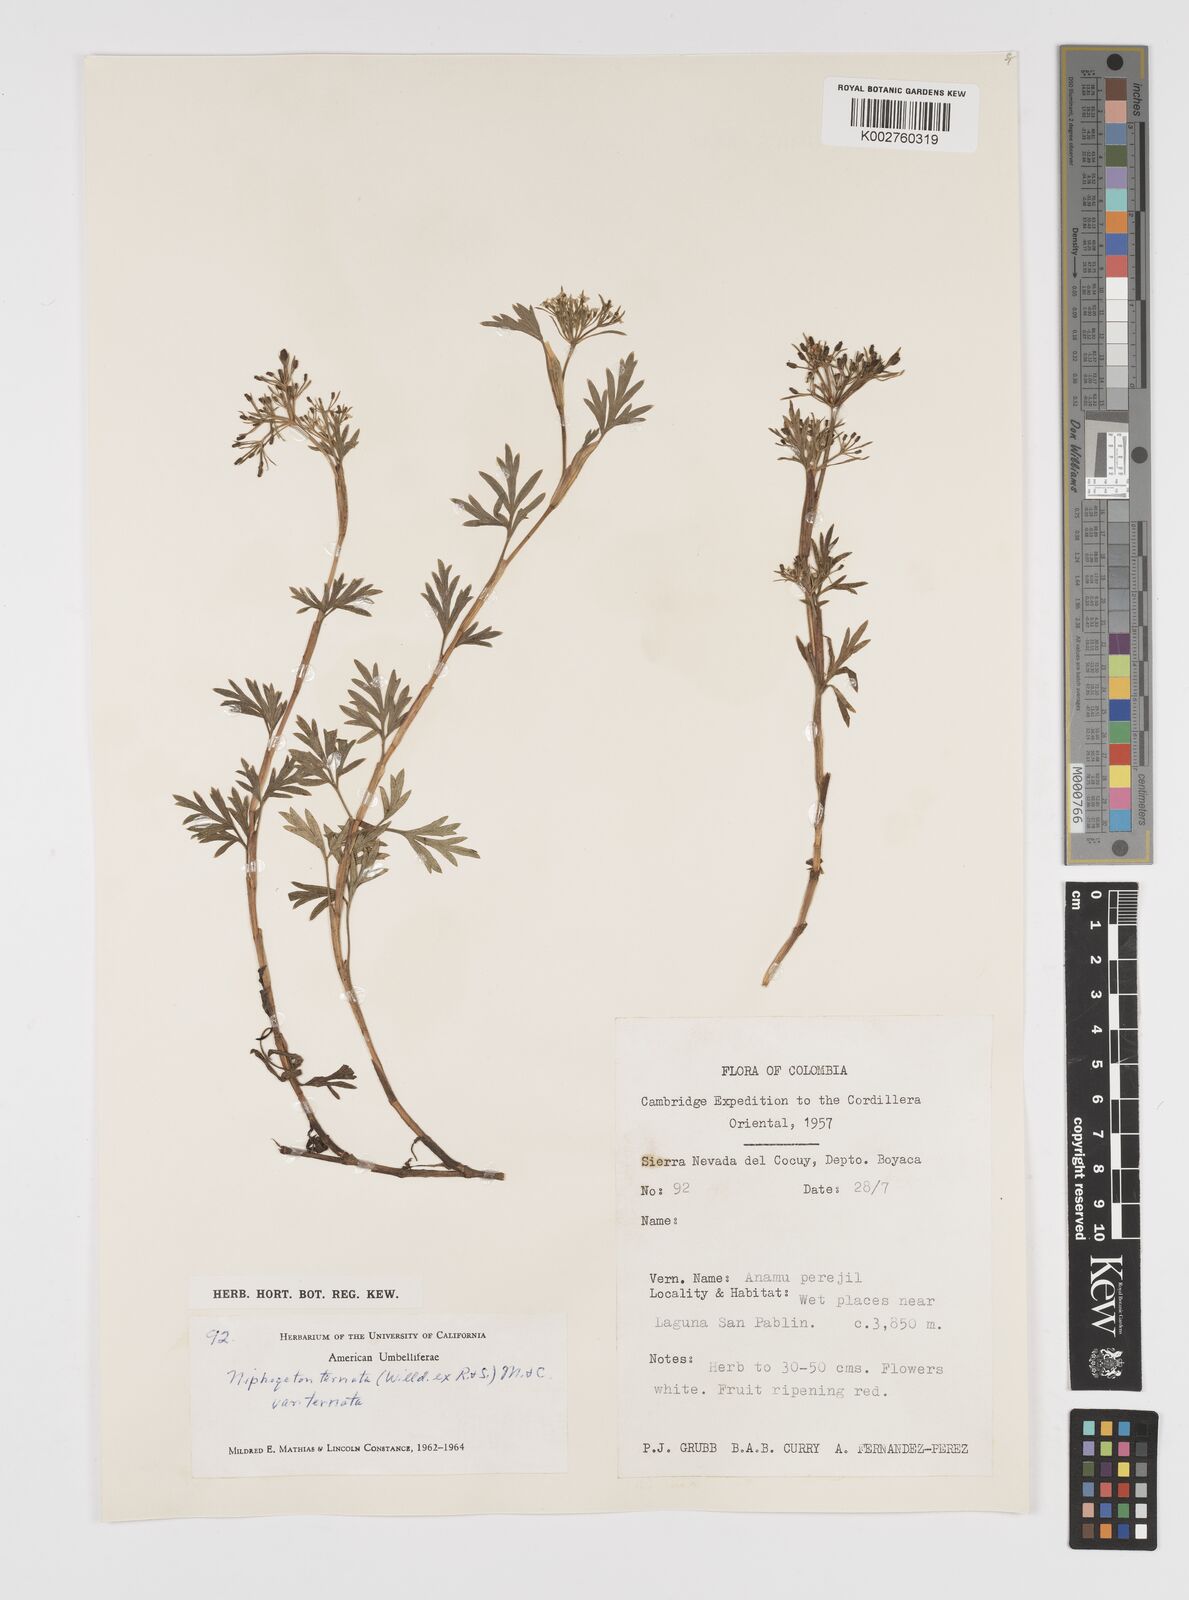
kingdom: Plantae
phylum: Tracheophyta
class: Magnoliopsida
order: Apiales
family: Apiaceae
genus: Niphogeton
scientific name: Niphogeton ternata
